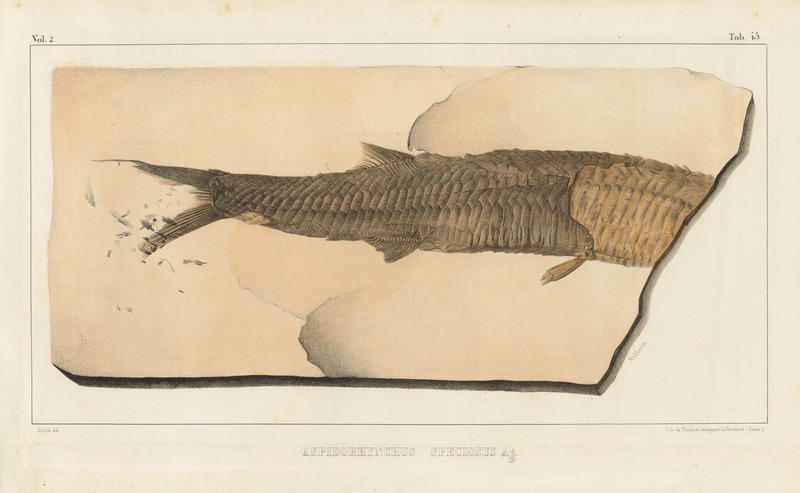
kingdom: Animalia
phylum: Chordata
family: Aspidorhynchidae
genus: Aspidorhynchus
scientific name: Aspidorhynchus ornatissimus
